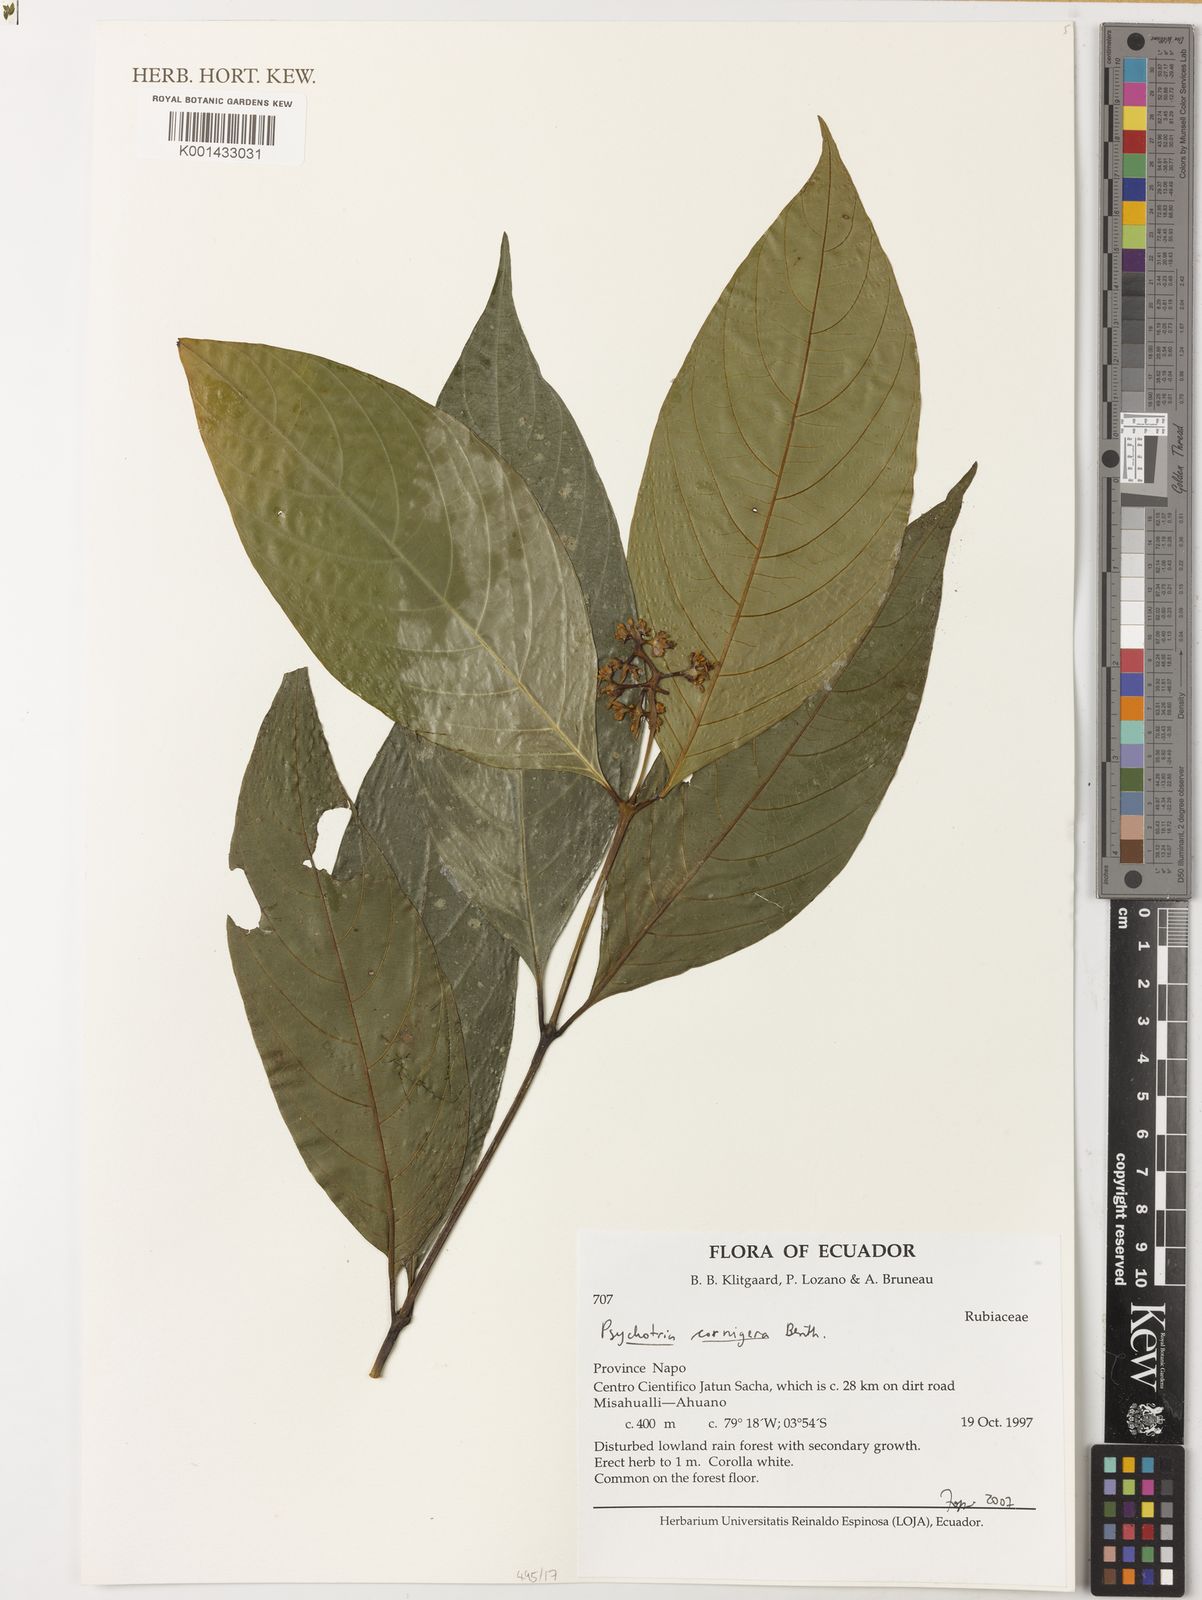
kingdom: Plantae
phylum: Tracheophyta
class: Magnoliopsida
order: Gentianales
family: Rubiaceae
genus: Palicourea
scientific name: Palicourea subcuspidata
